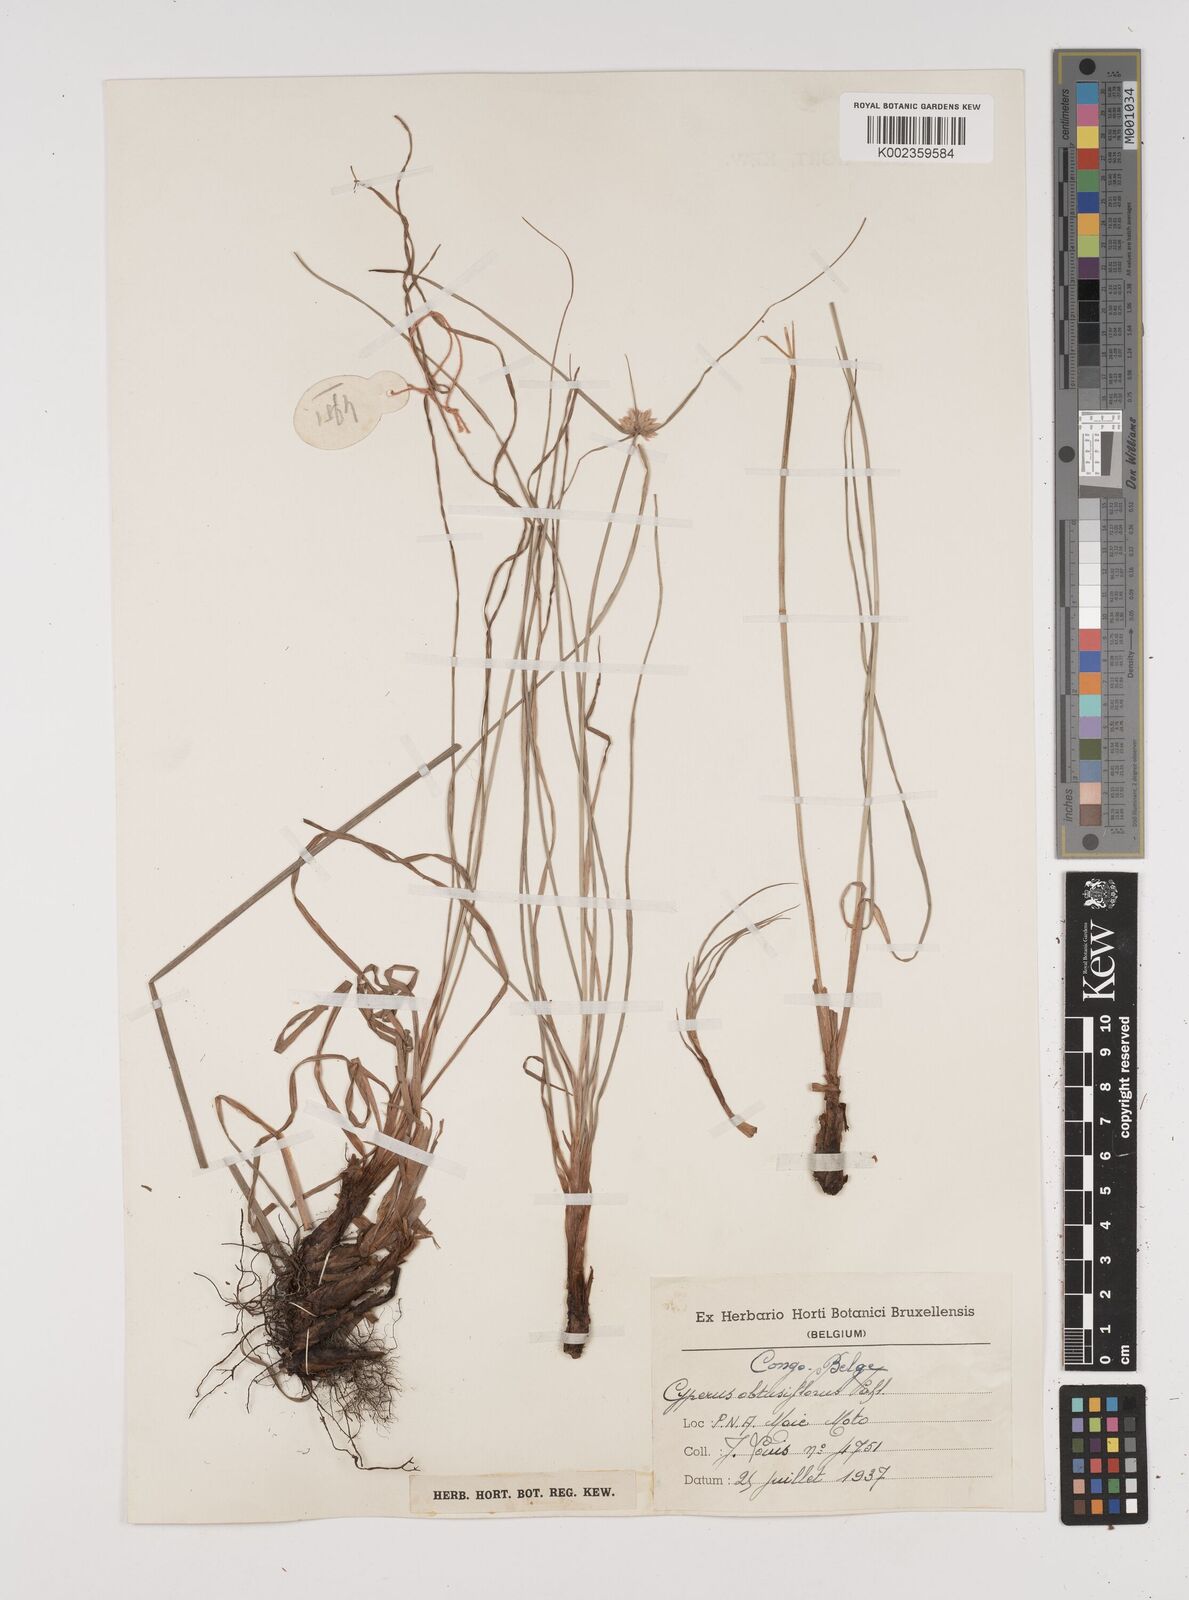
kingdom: Plantae
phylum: Tracheophyta
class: Liliopsida
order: Poales
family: Cyperaceae
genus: Cyperus
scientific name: Cyperus niveus
